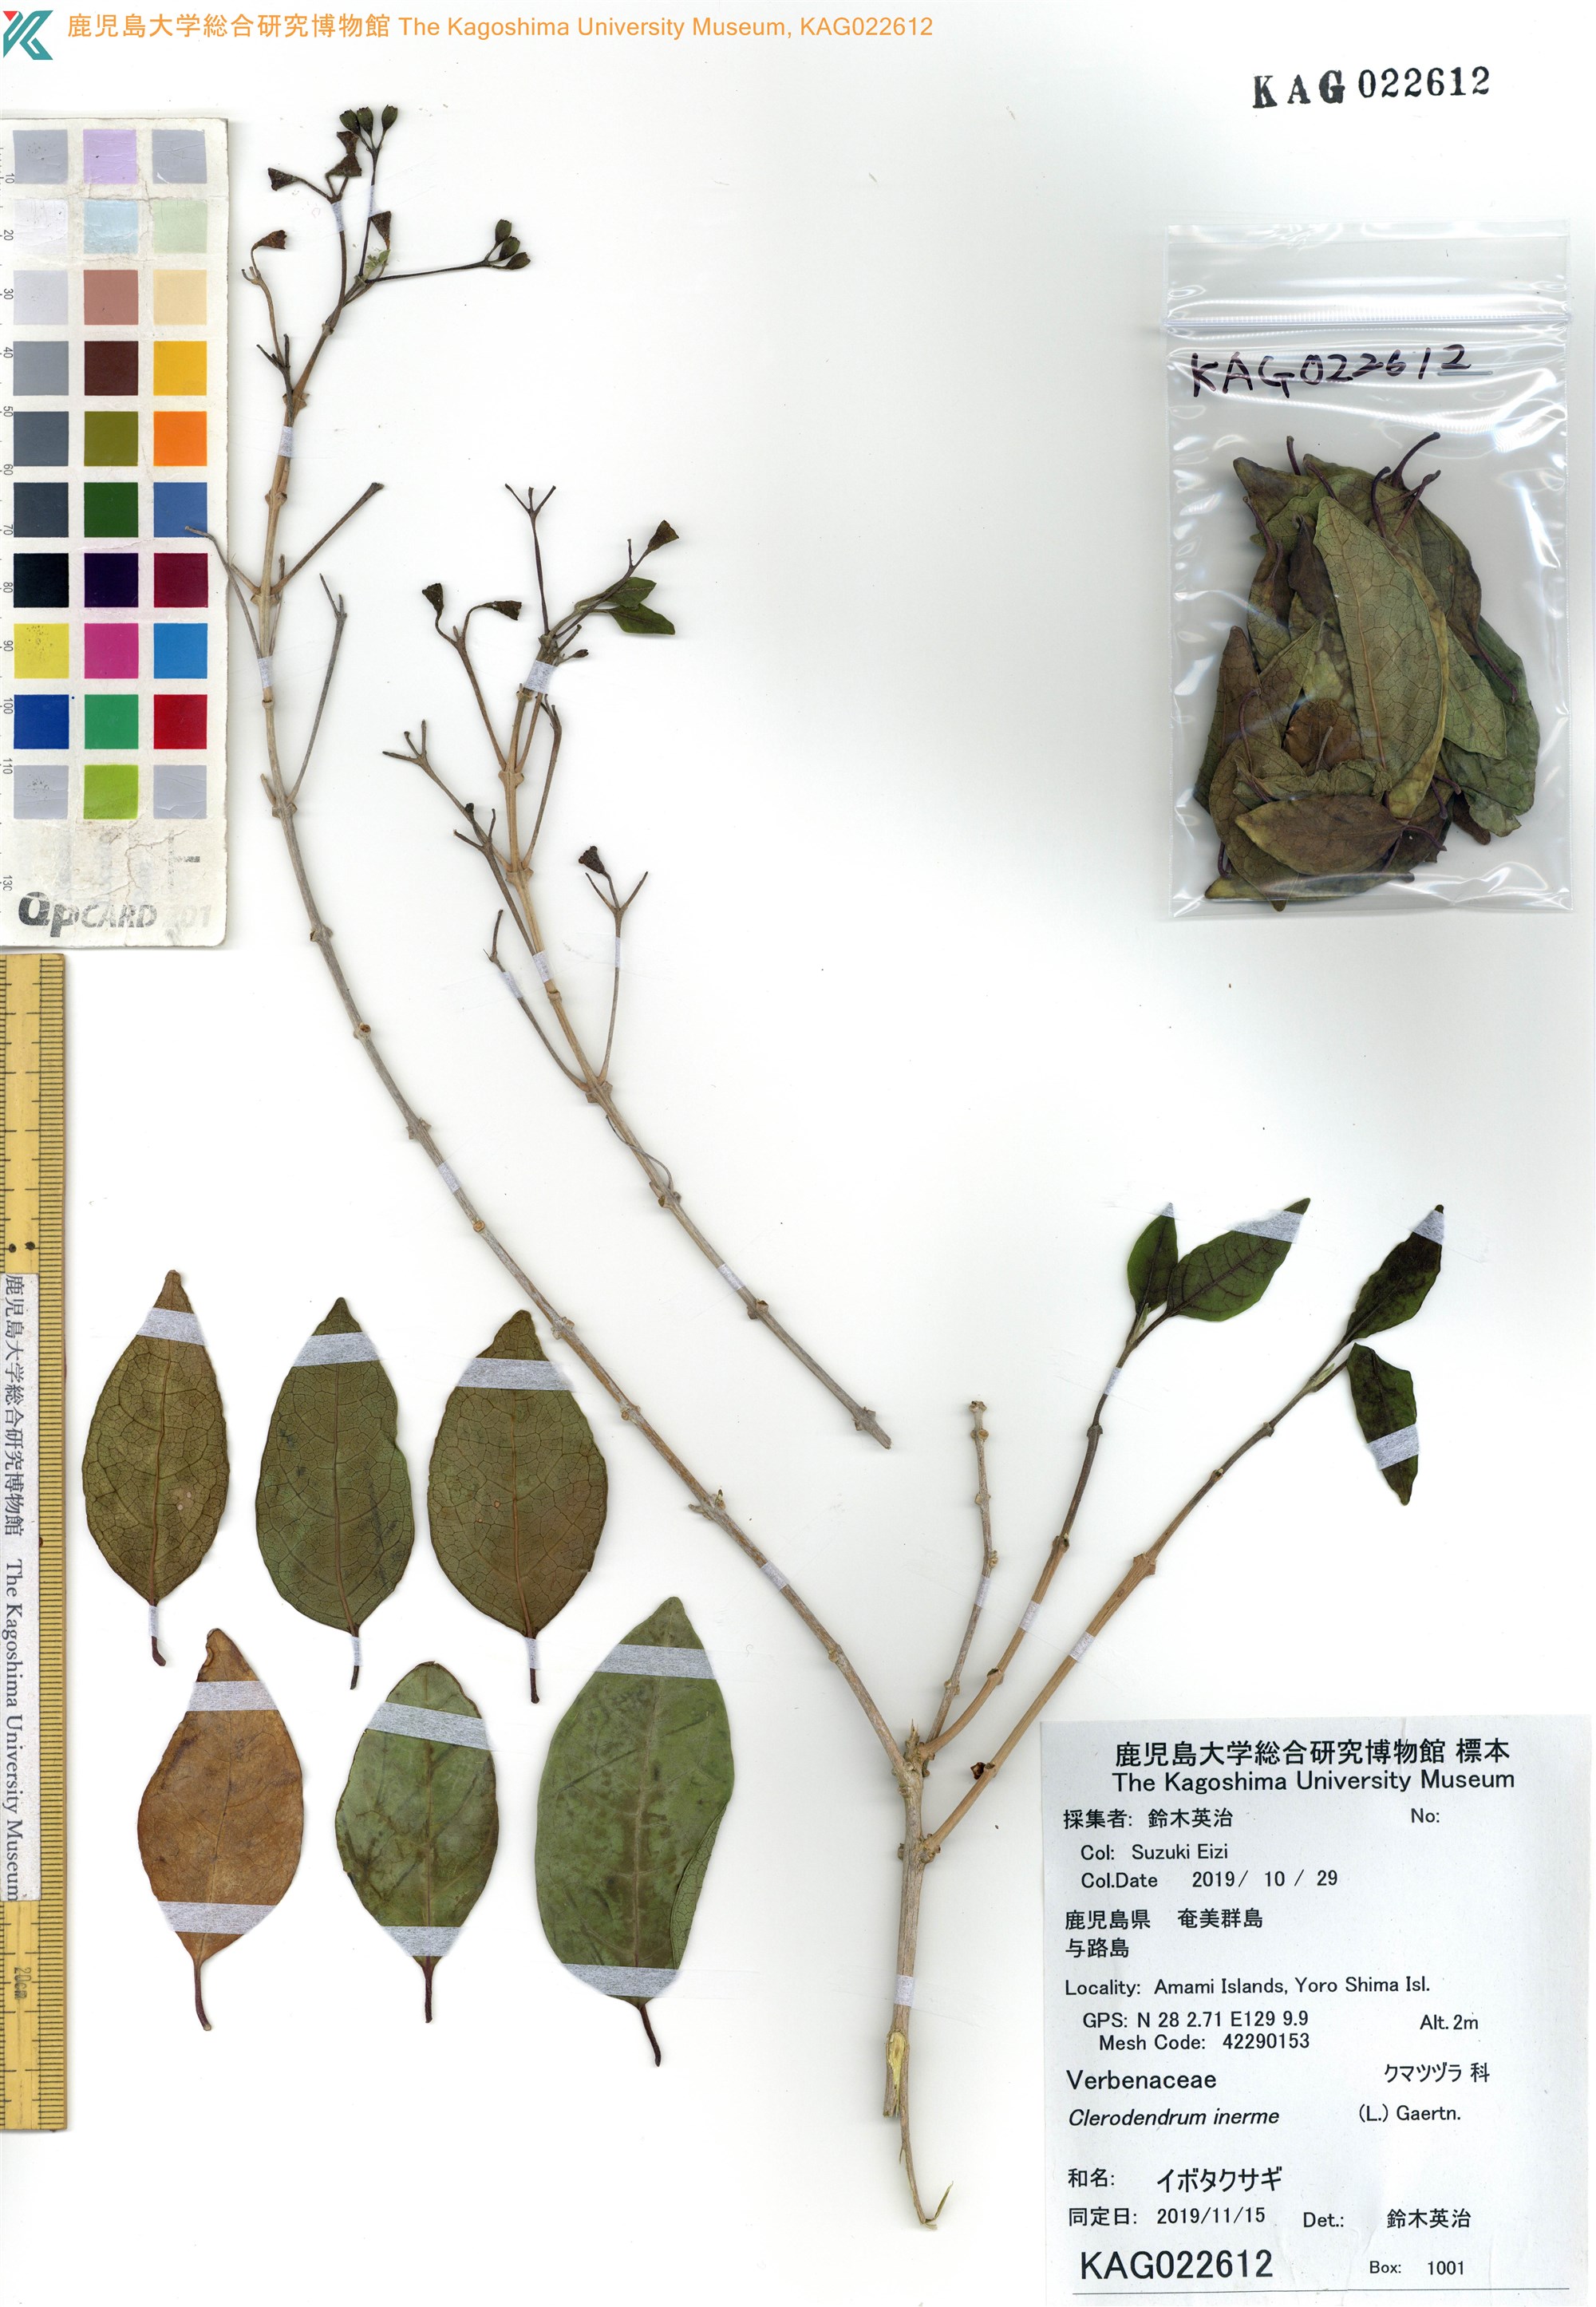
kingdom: Plantae
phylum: Tracheophyta
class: Magnoliopsida
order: Lamiales
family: Lamiaceae
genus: Volkameria
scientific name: Volkameria inermis
